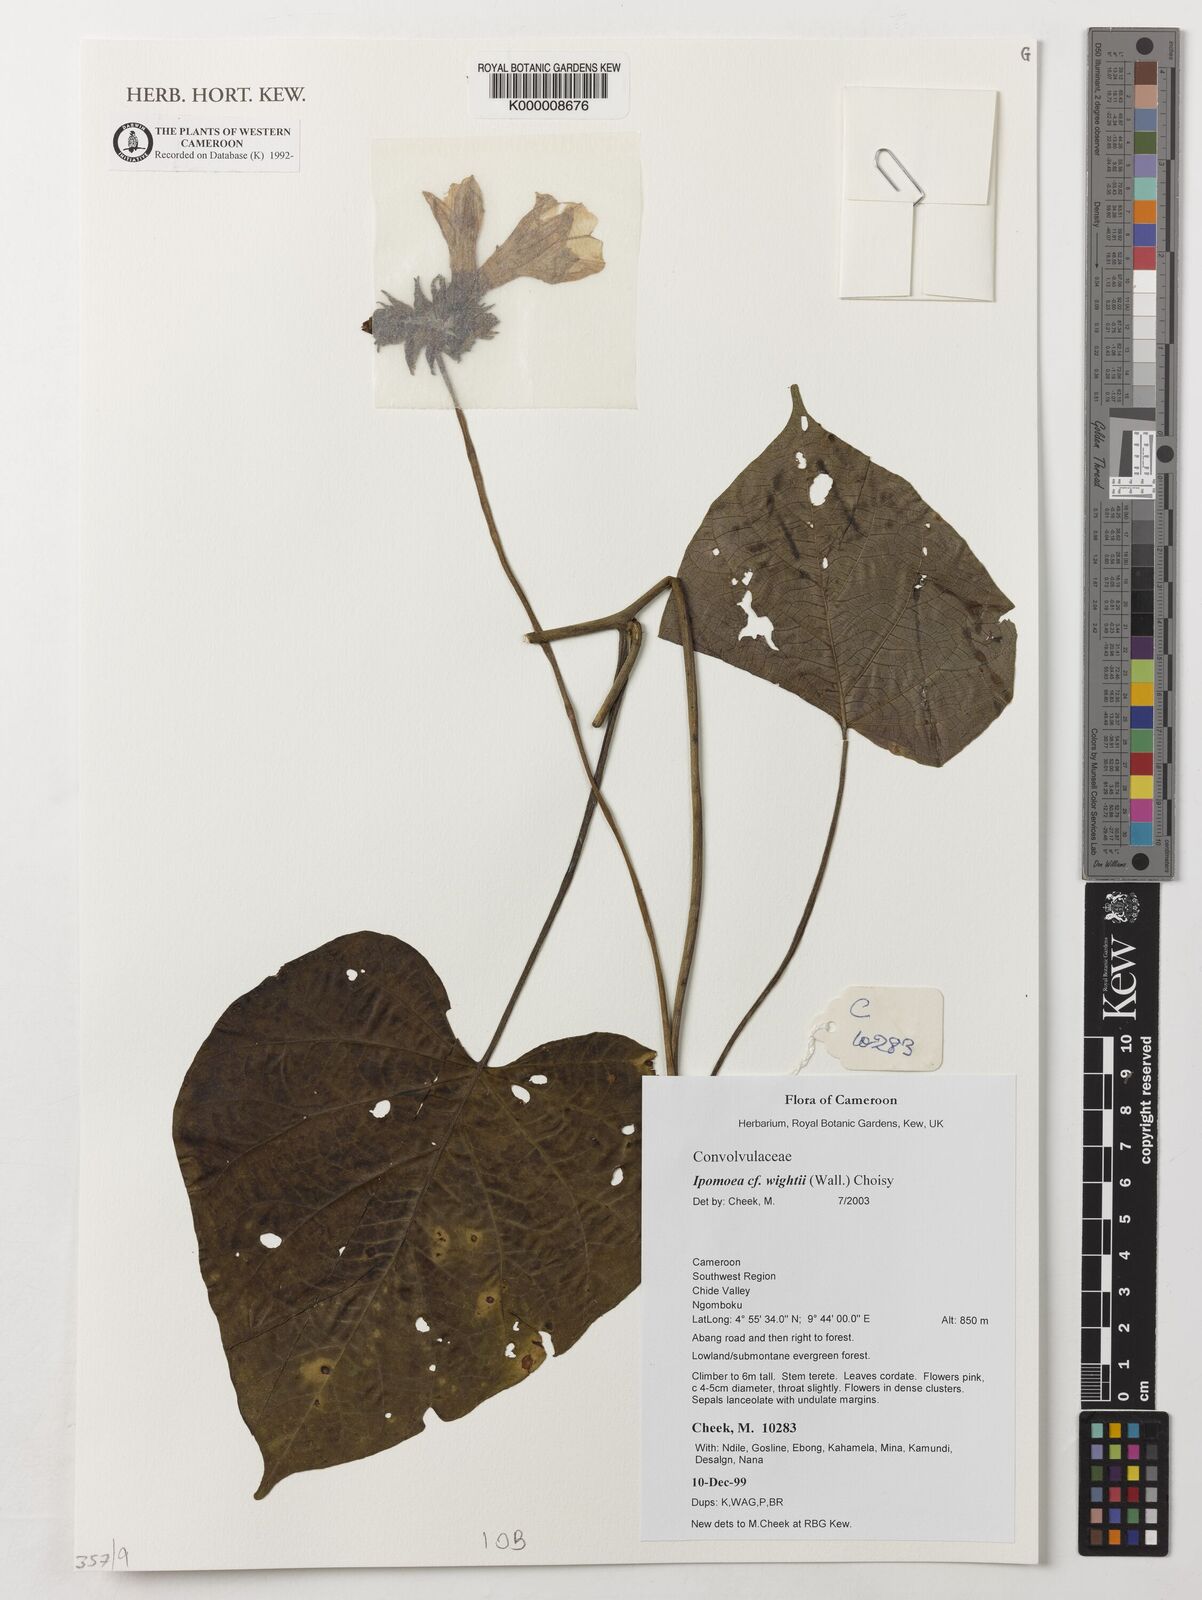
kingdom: Plantae
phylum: Tracheophyta
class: Magnoliopsida
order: Solanales
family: Convolvulaceae
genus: Ipomoea
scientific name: Ipomoea wightii
